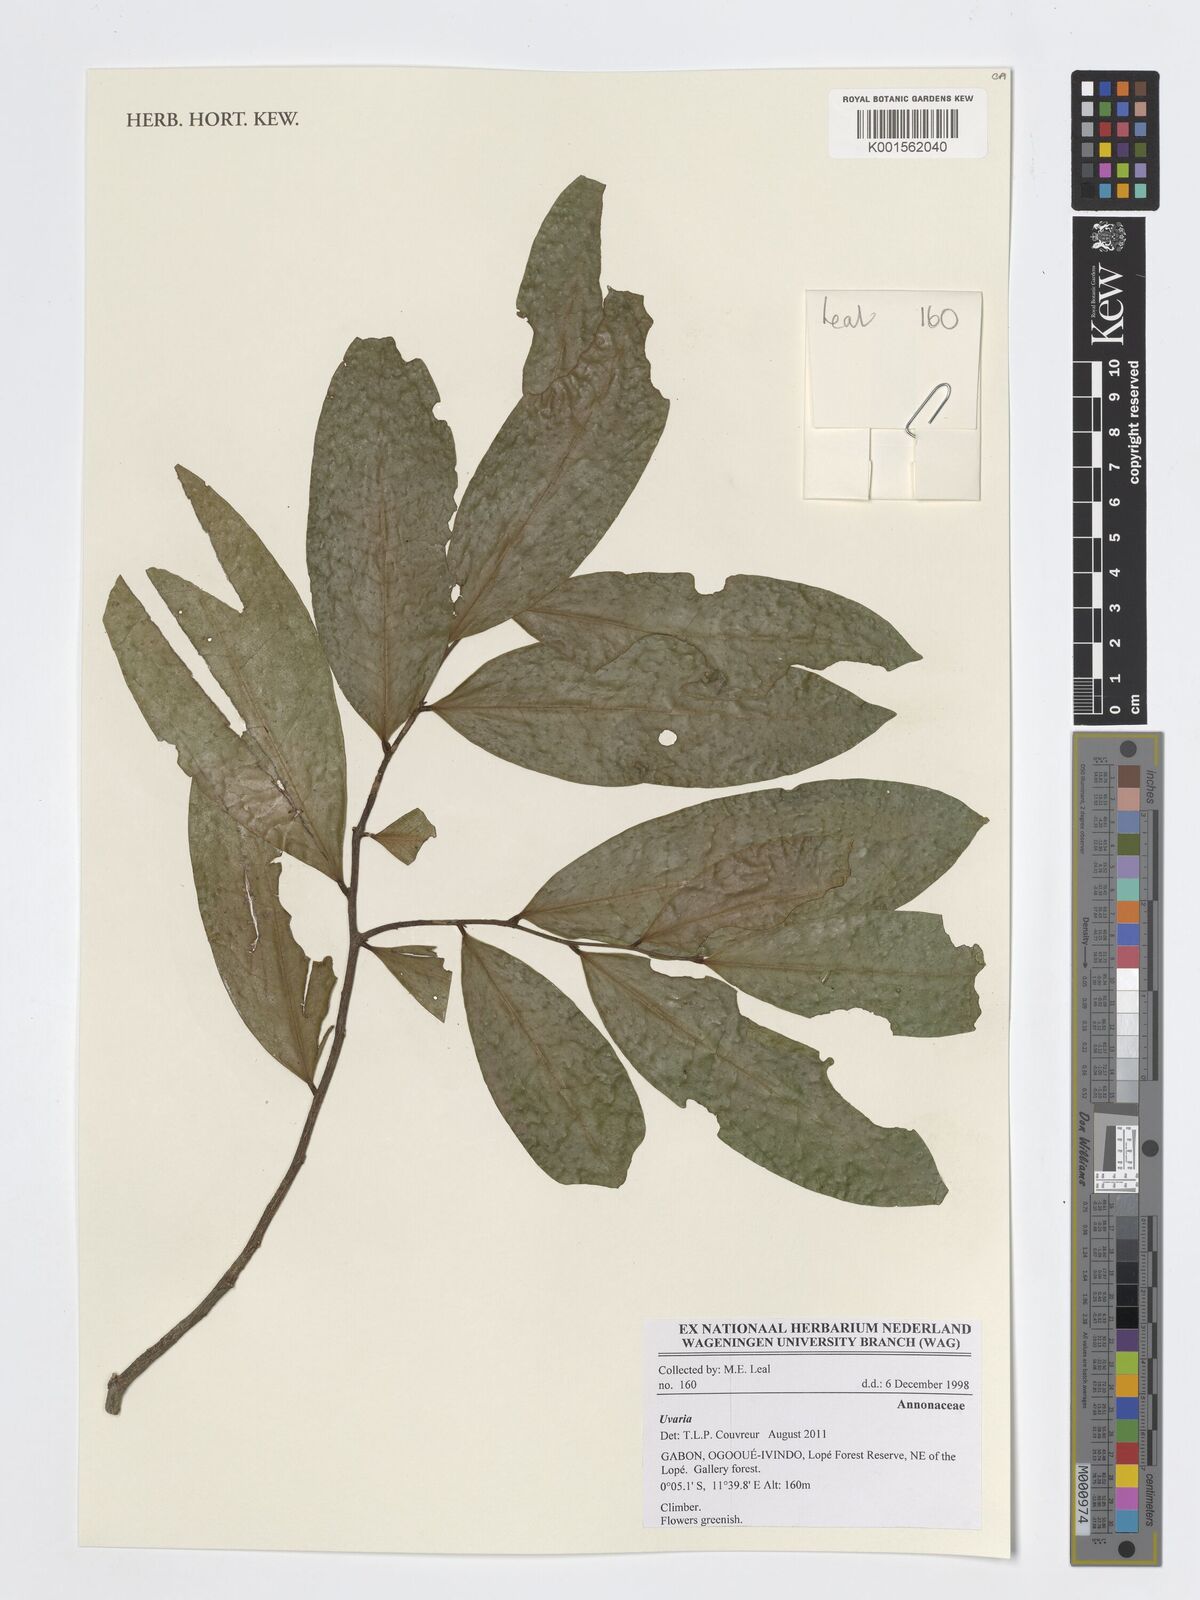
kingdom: Plantae
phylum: Tracheophyta
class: Magnoliopsida
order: Magnoliales
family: Annonaceae
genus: Uvaria
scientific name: Uvaria
